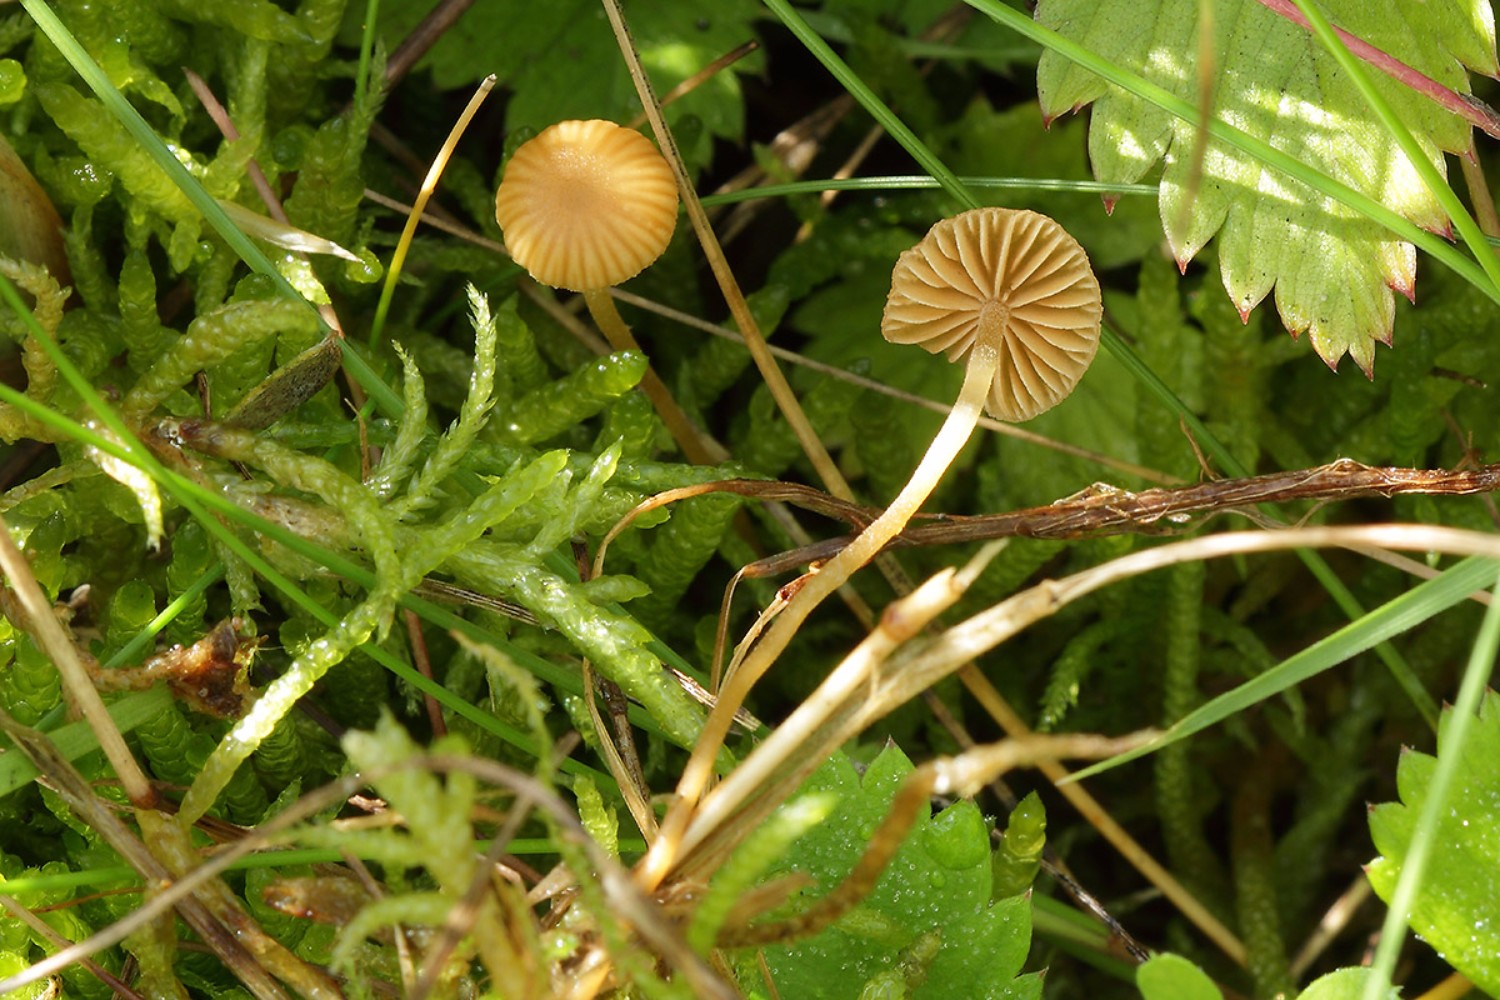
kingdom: Fungi
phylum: Basidiomycota
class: Agaricomycetes
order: Agaricales
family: Hymenogastraceae
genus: Galerina
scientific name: Galerina vittiformis
